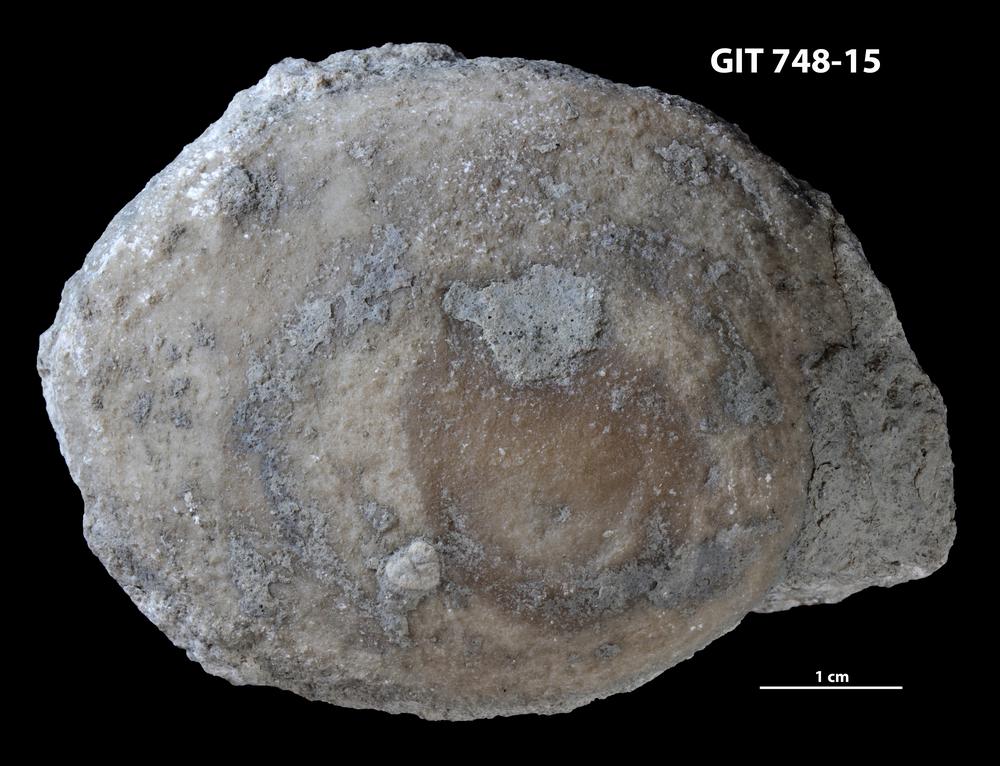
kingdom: Animalia
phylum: Porifera
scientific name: Porifera
